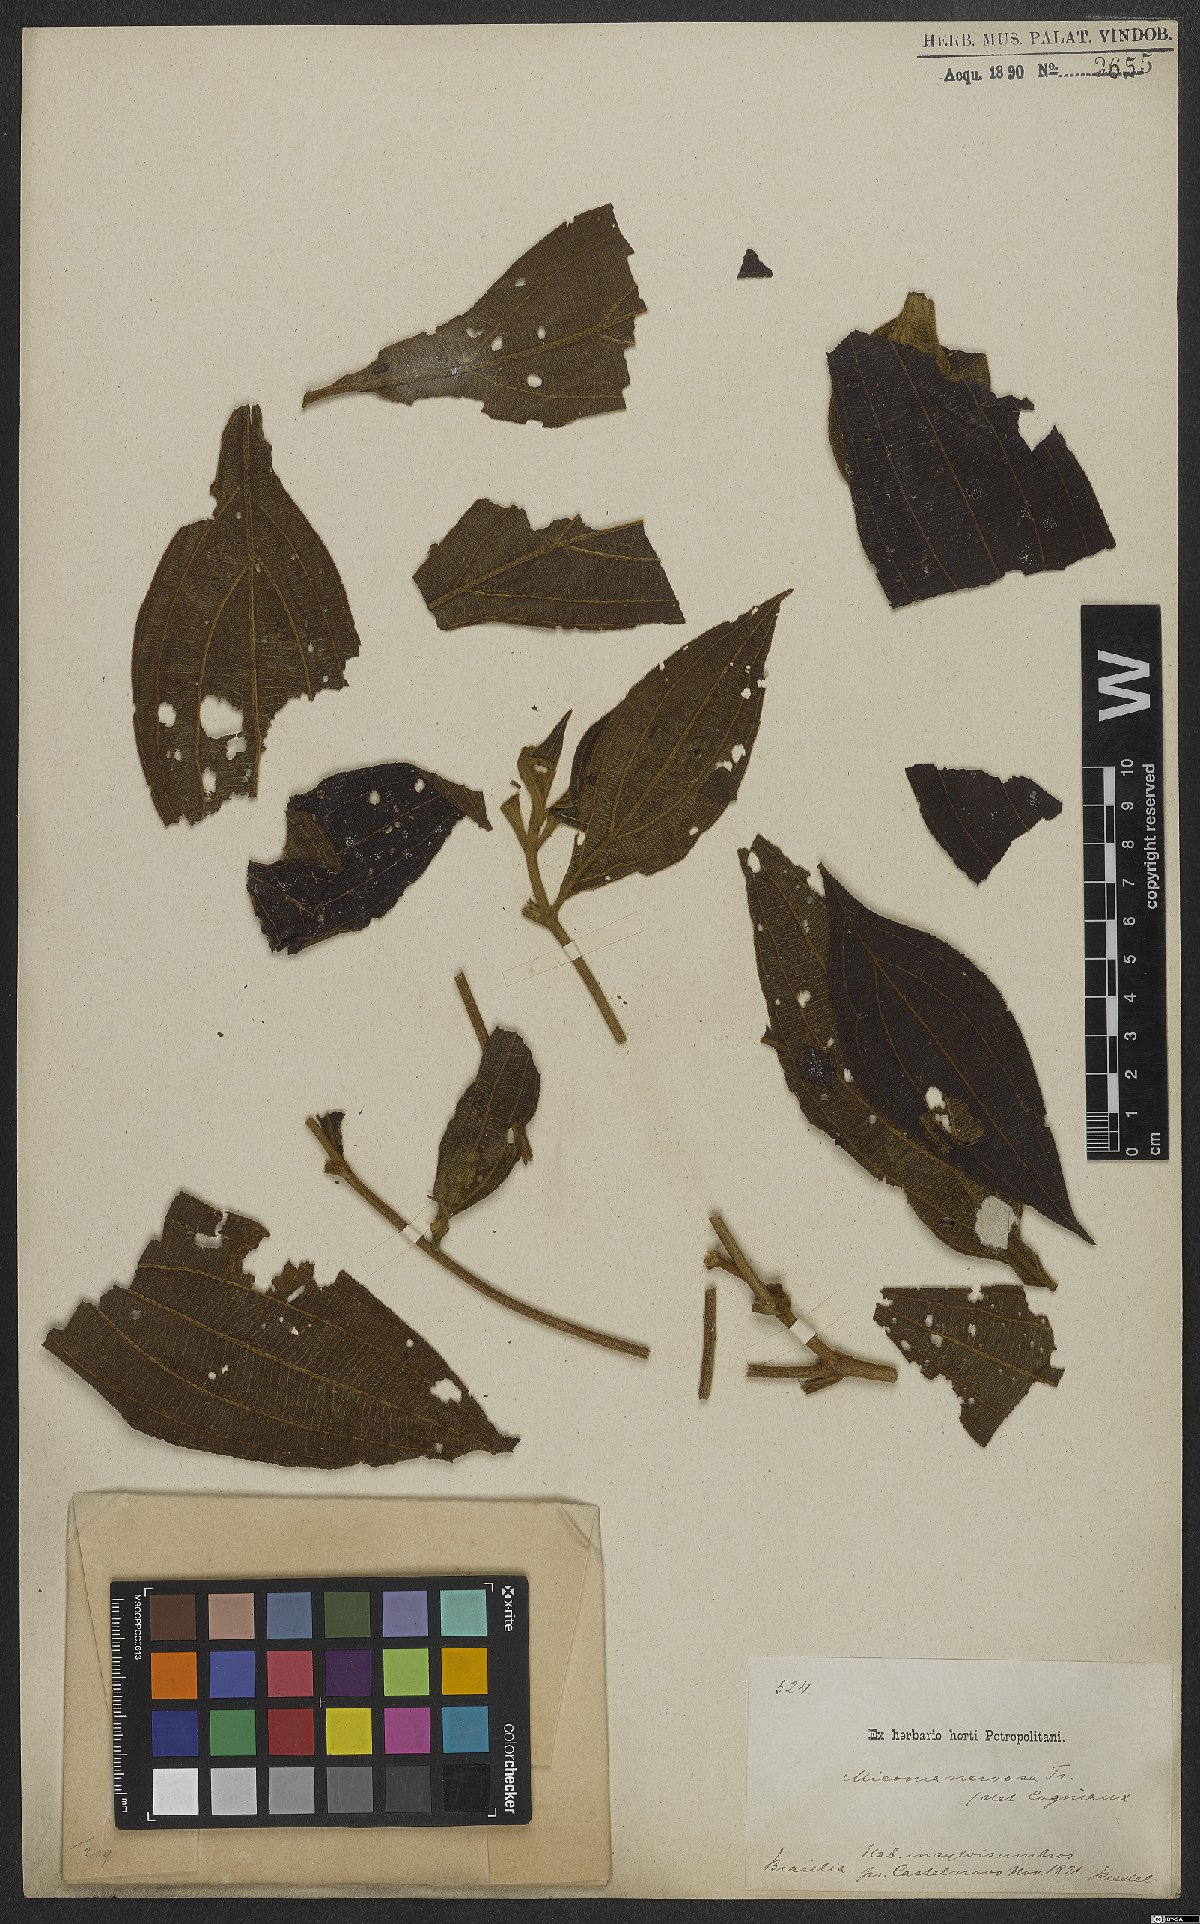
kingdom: Plantae
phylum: Tracheophyta
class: Magnoliopsida
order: Myrtales
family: Melastomataceae
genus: Miconia
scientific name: Miconia nervosa
